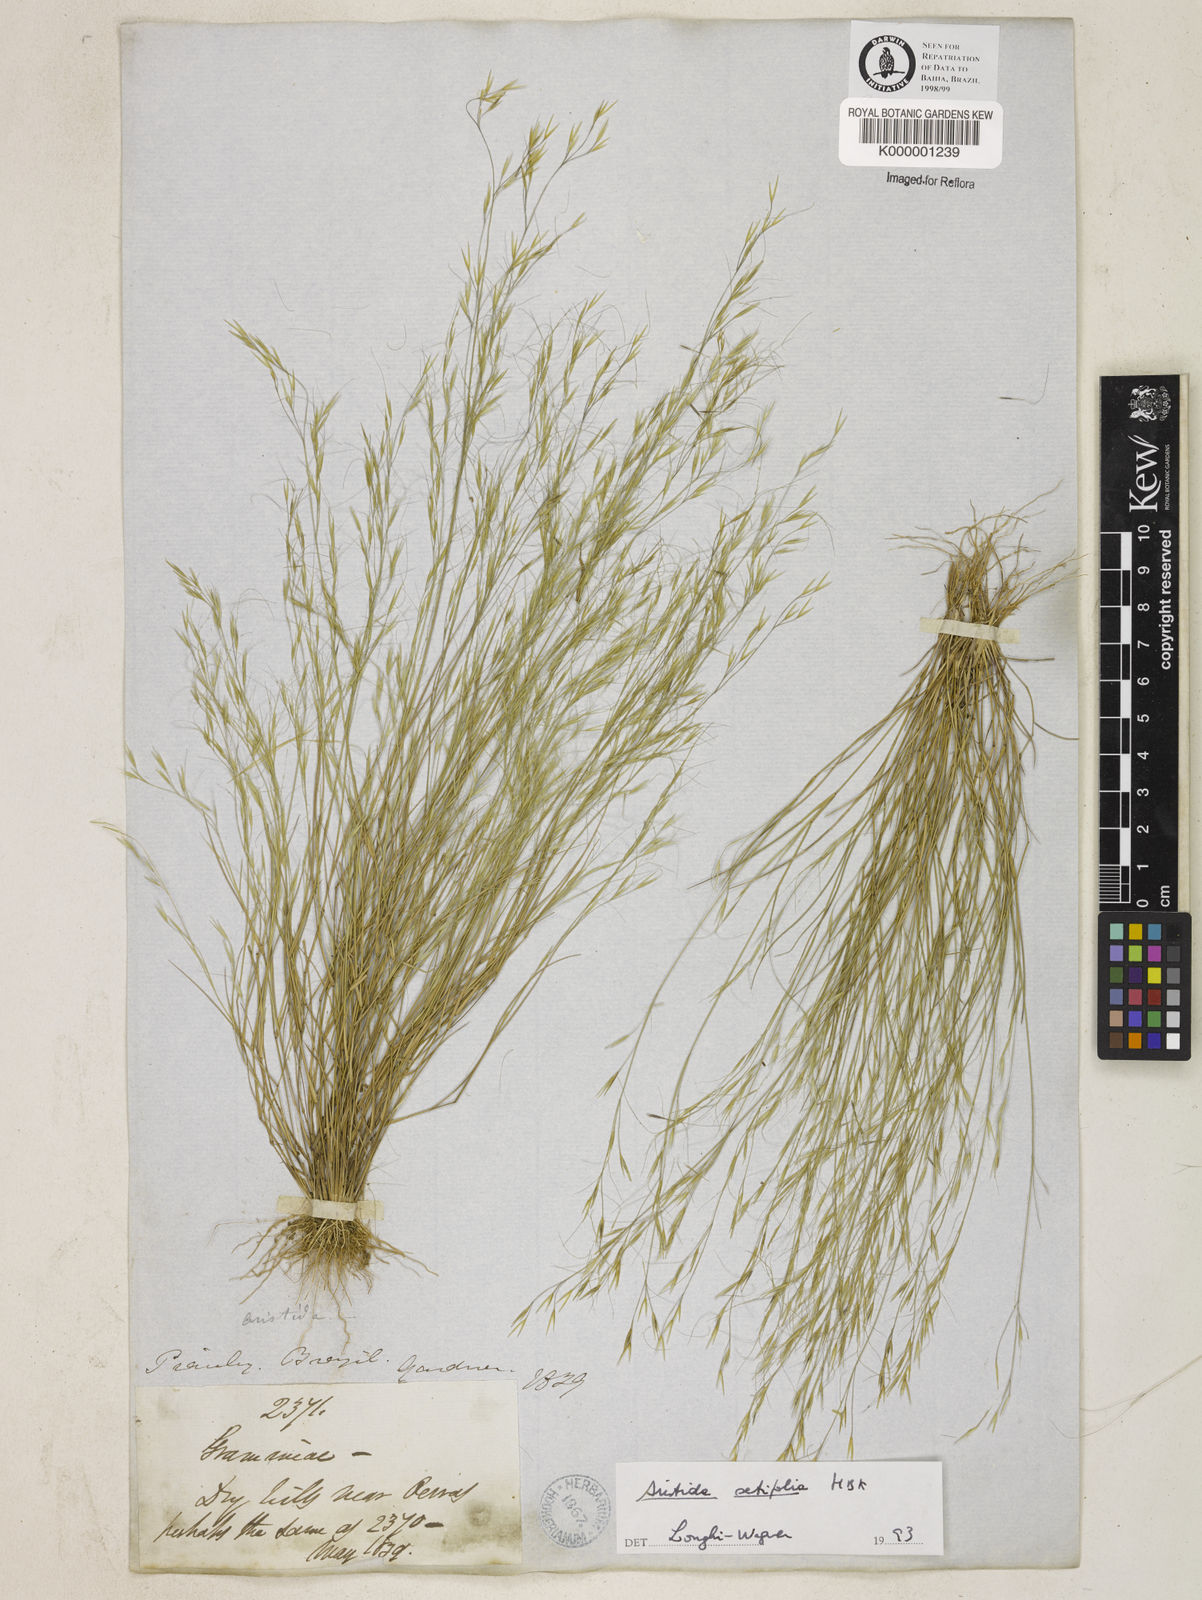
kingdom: Plantae
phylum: Tracheophyta
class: Liliopsida
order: Poales
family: Poaceae
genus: Aristida
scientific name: Aristida setifolia
